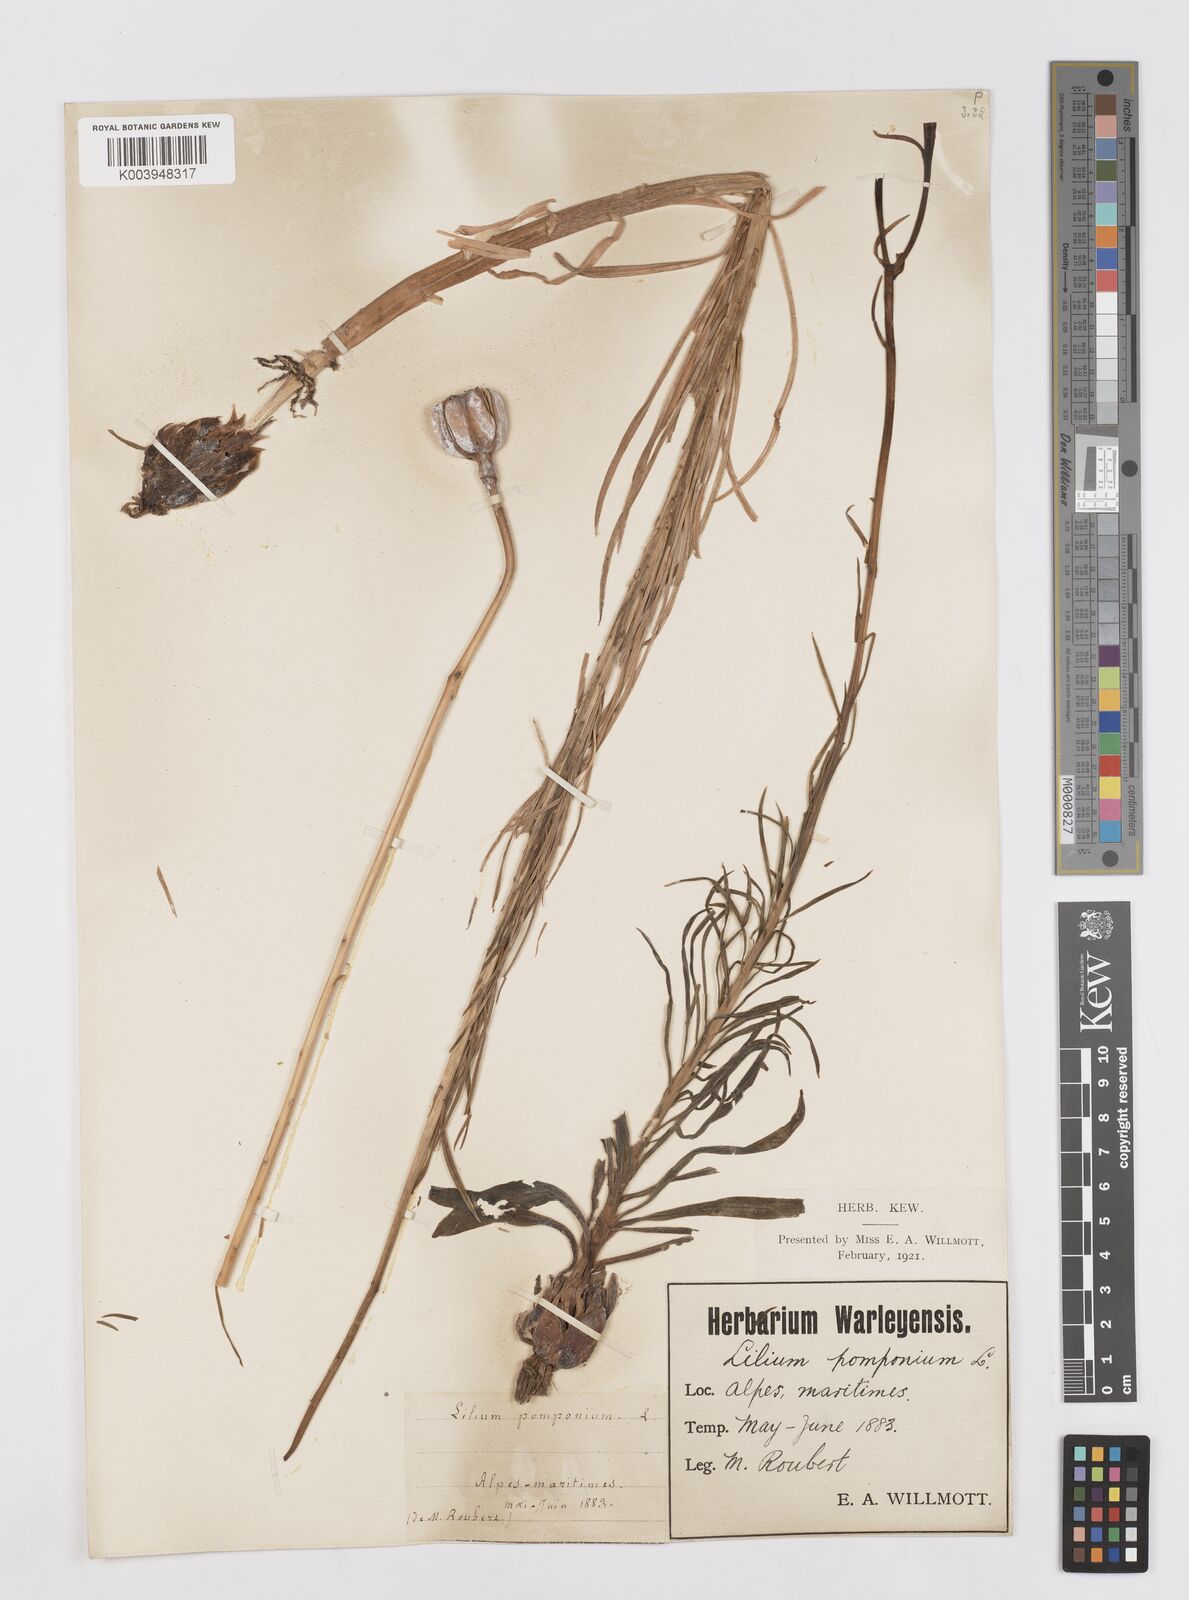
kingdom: Plantae
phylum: Tracheophyta
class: Liliopsida
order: Liliales
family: Liliaceae
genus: Lilium
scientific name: Lilium pomponium
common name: Minor turk's-cap lily
